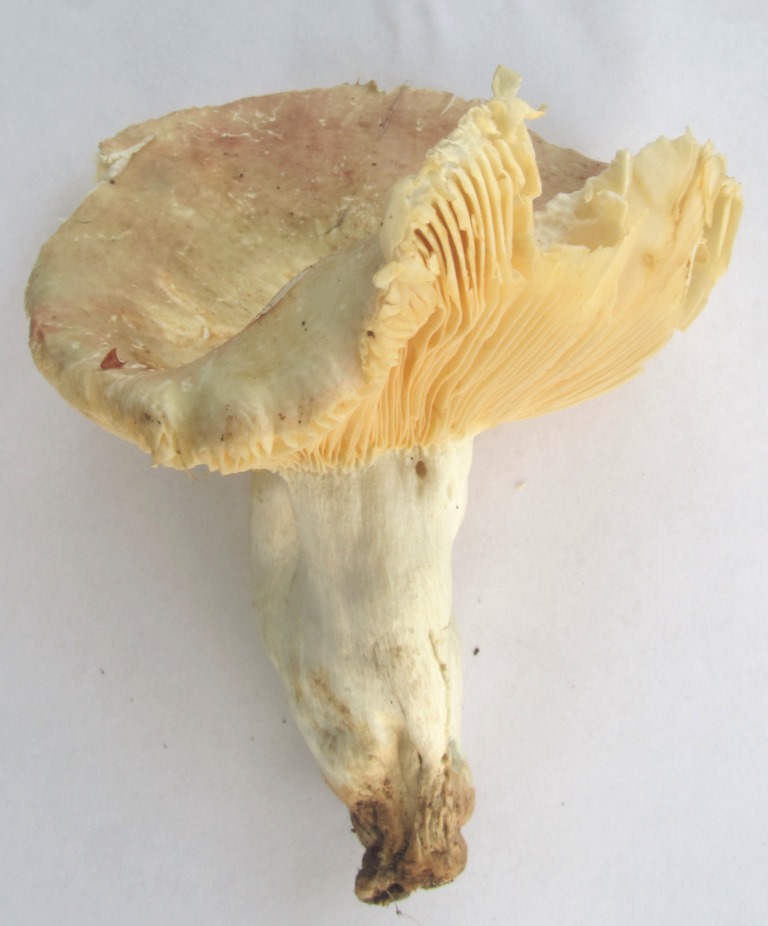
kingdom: Fungi
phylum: Basidiomycota
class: Agaricomycetes
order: Russulales
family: Russulaceae
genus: Russula
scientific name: Russula olivacea
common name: stor skørhat
